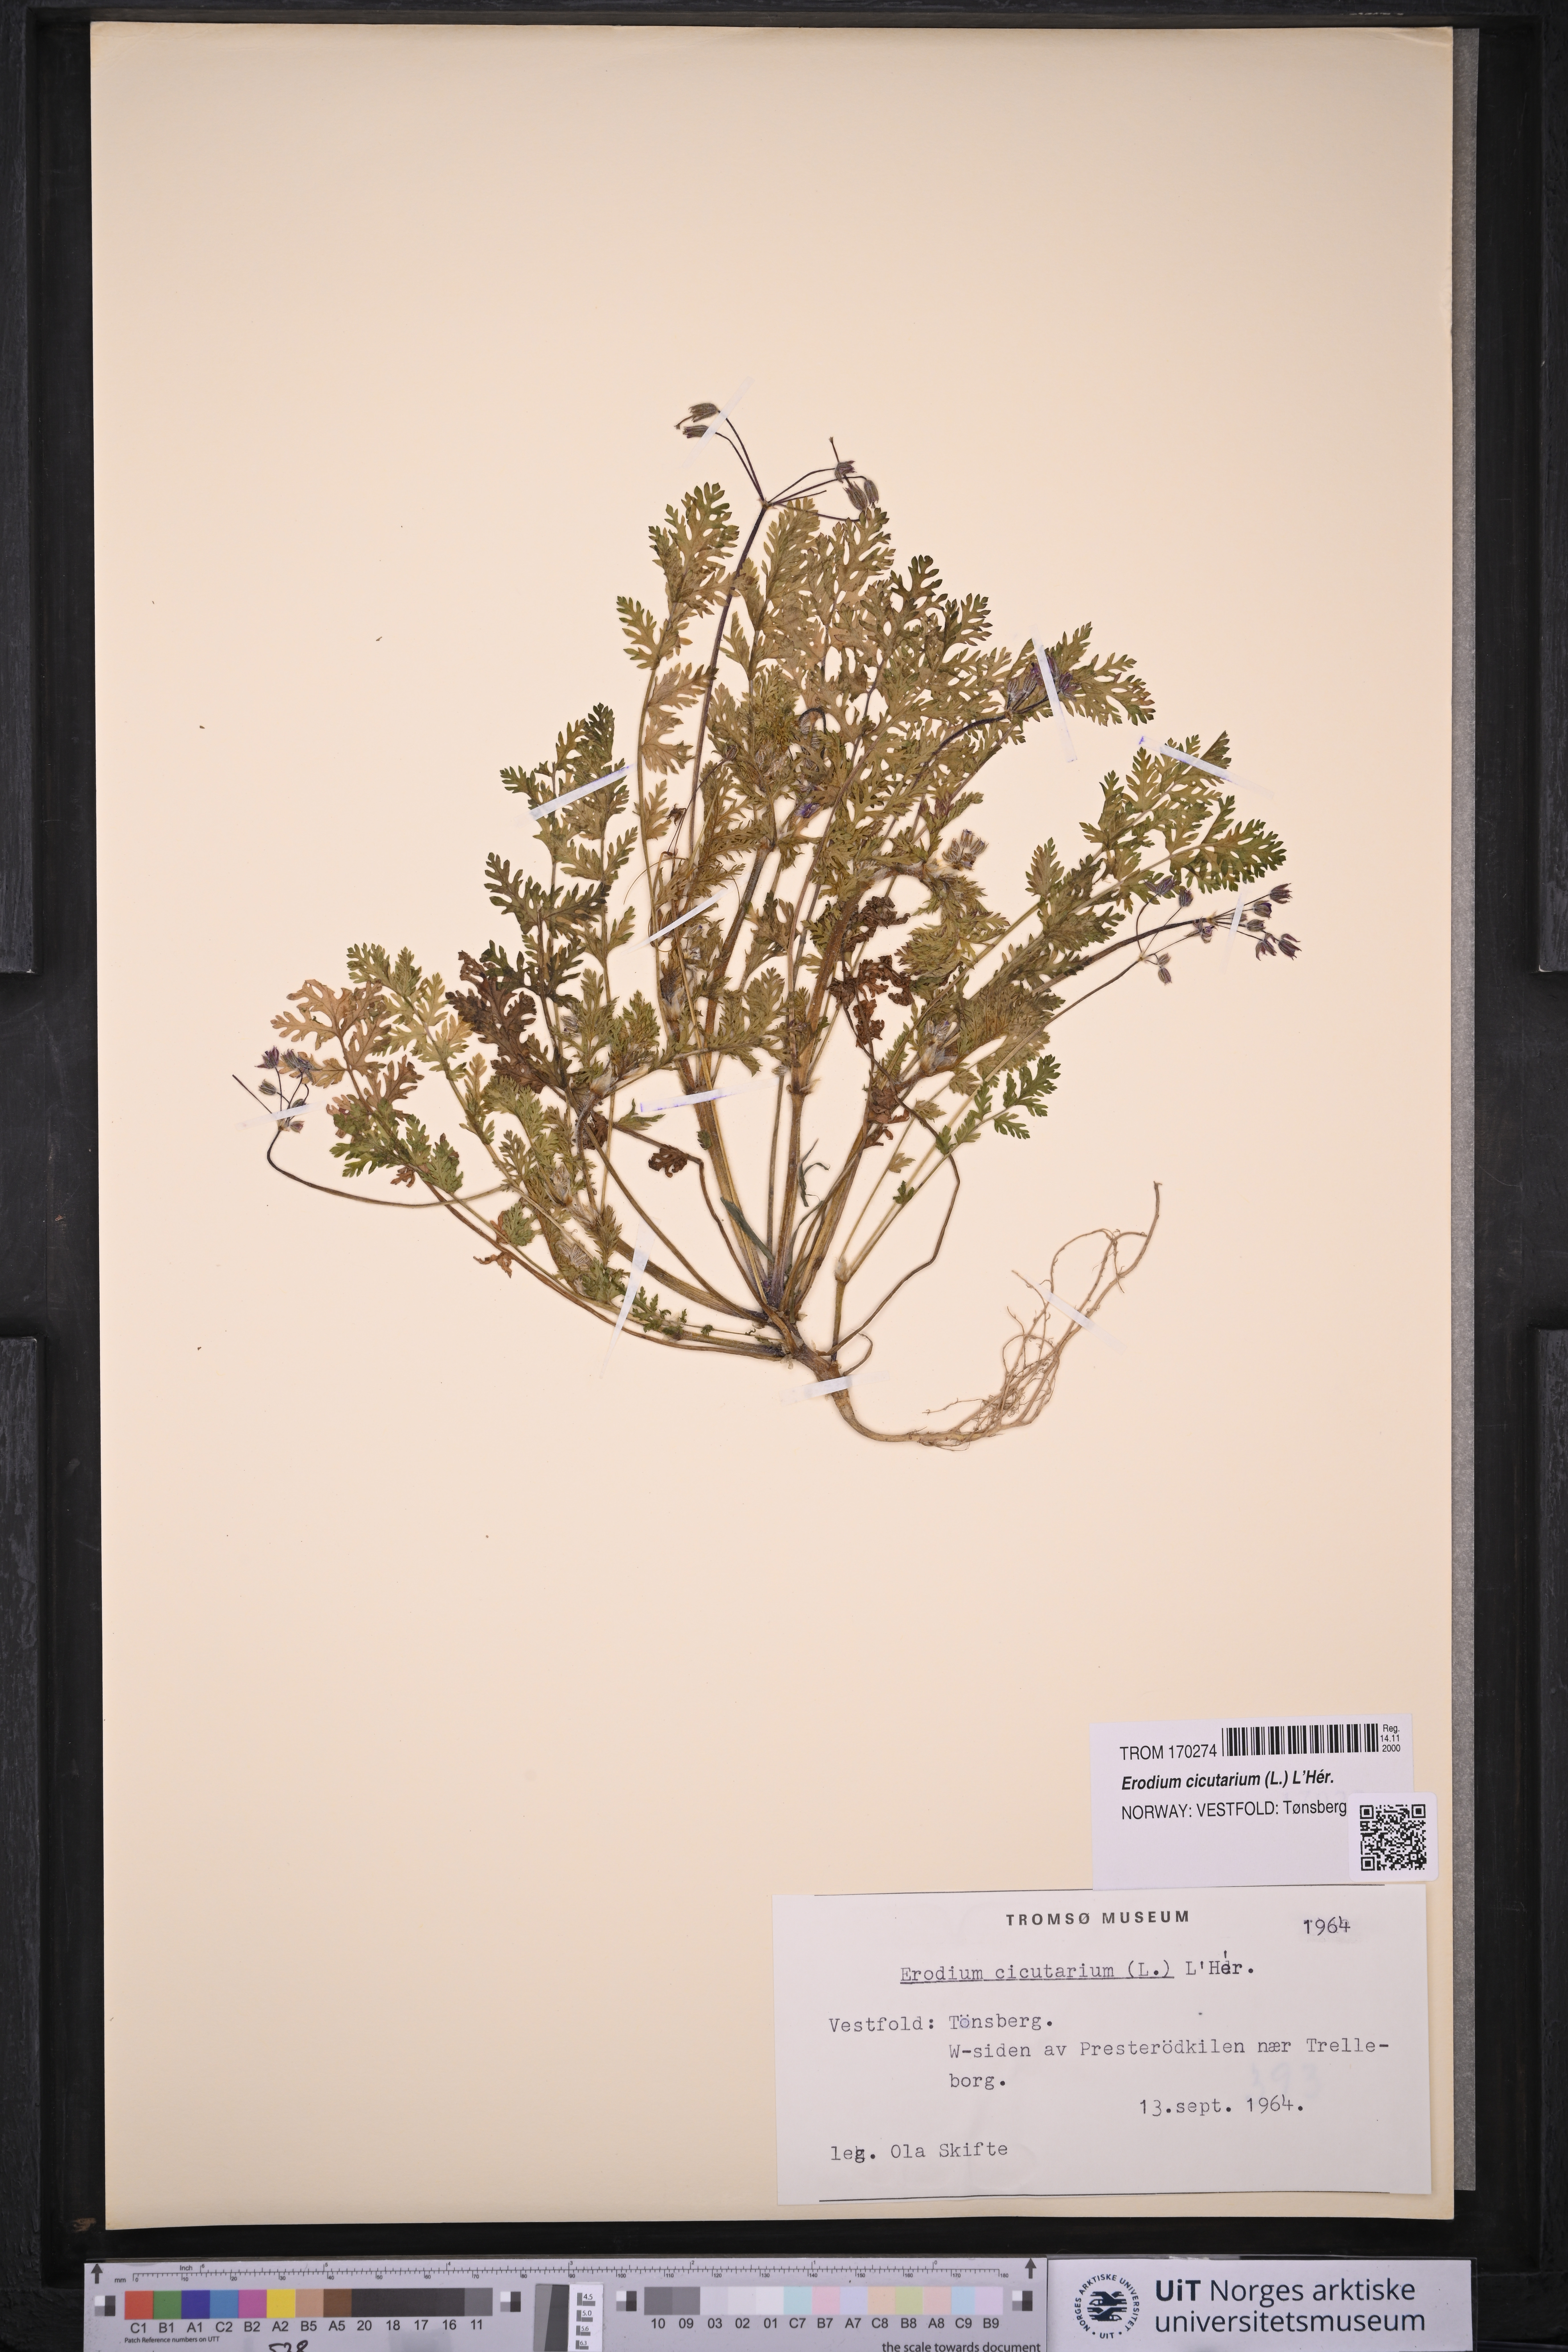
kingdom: Plantae
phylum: Tracheophyta
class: Magnoliopsida
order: Geraniales
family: Geraniaceae
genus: Erodium
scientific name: Erodium cicutarium
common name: Common stork's-bill
